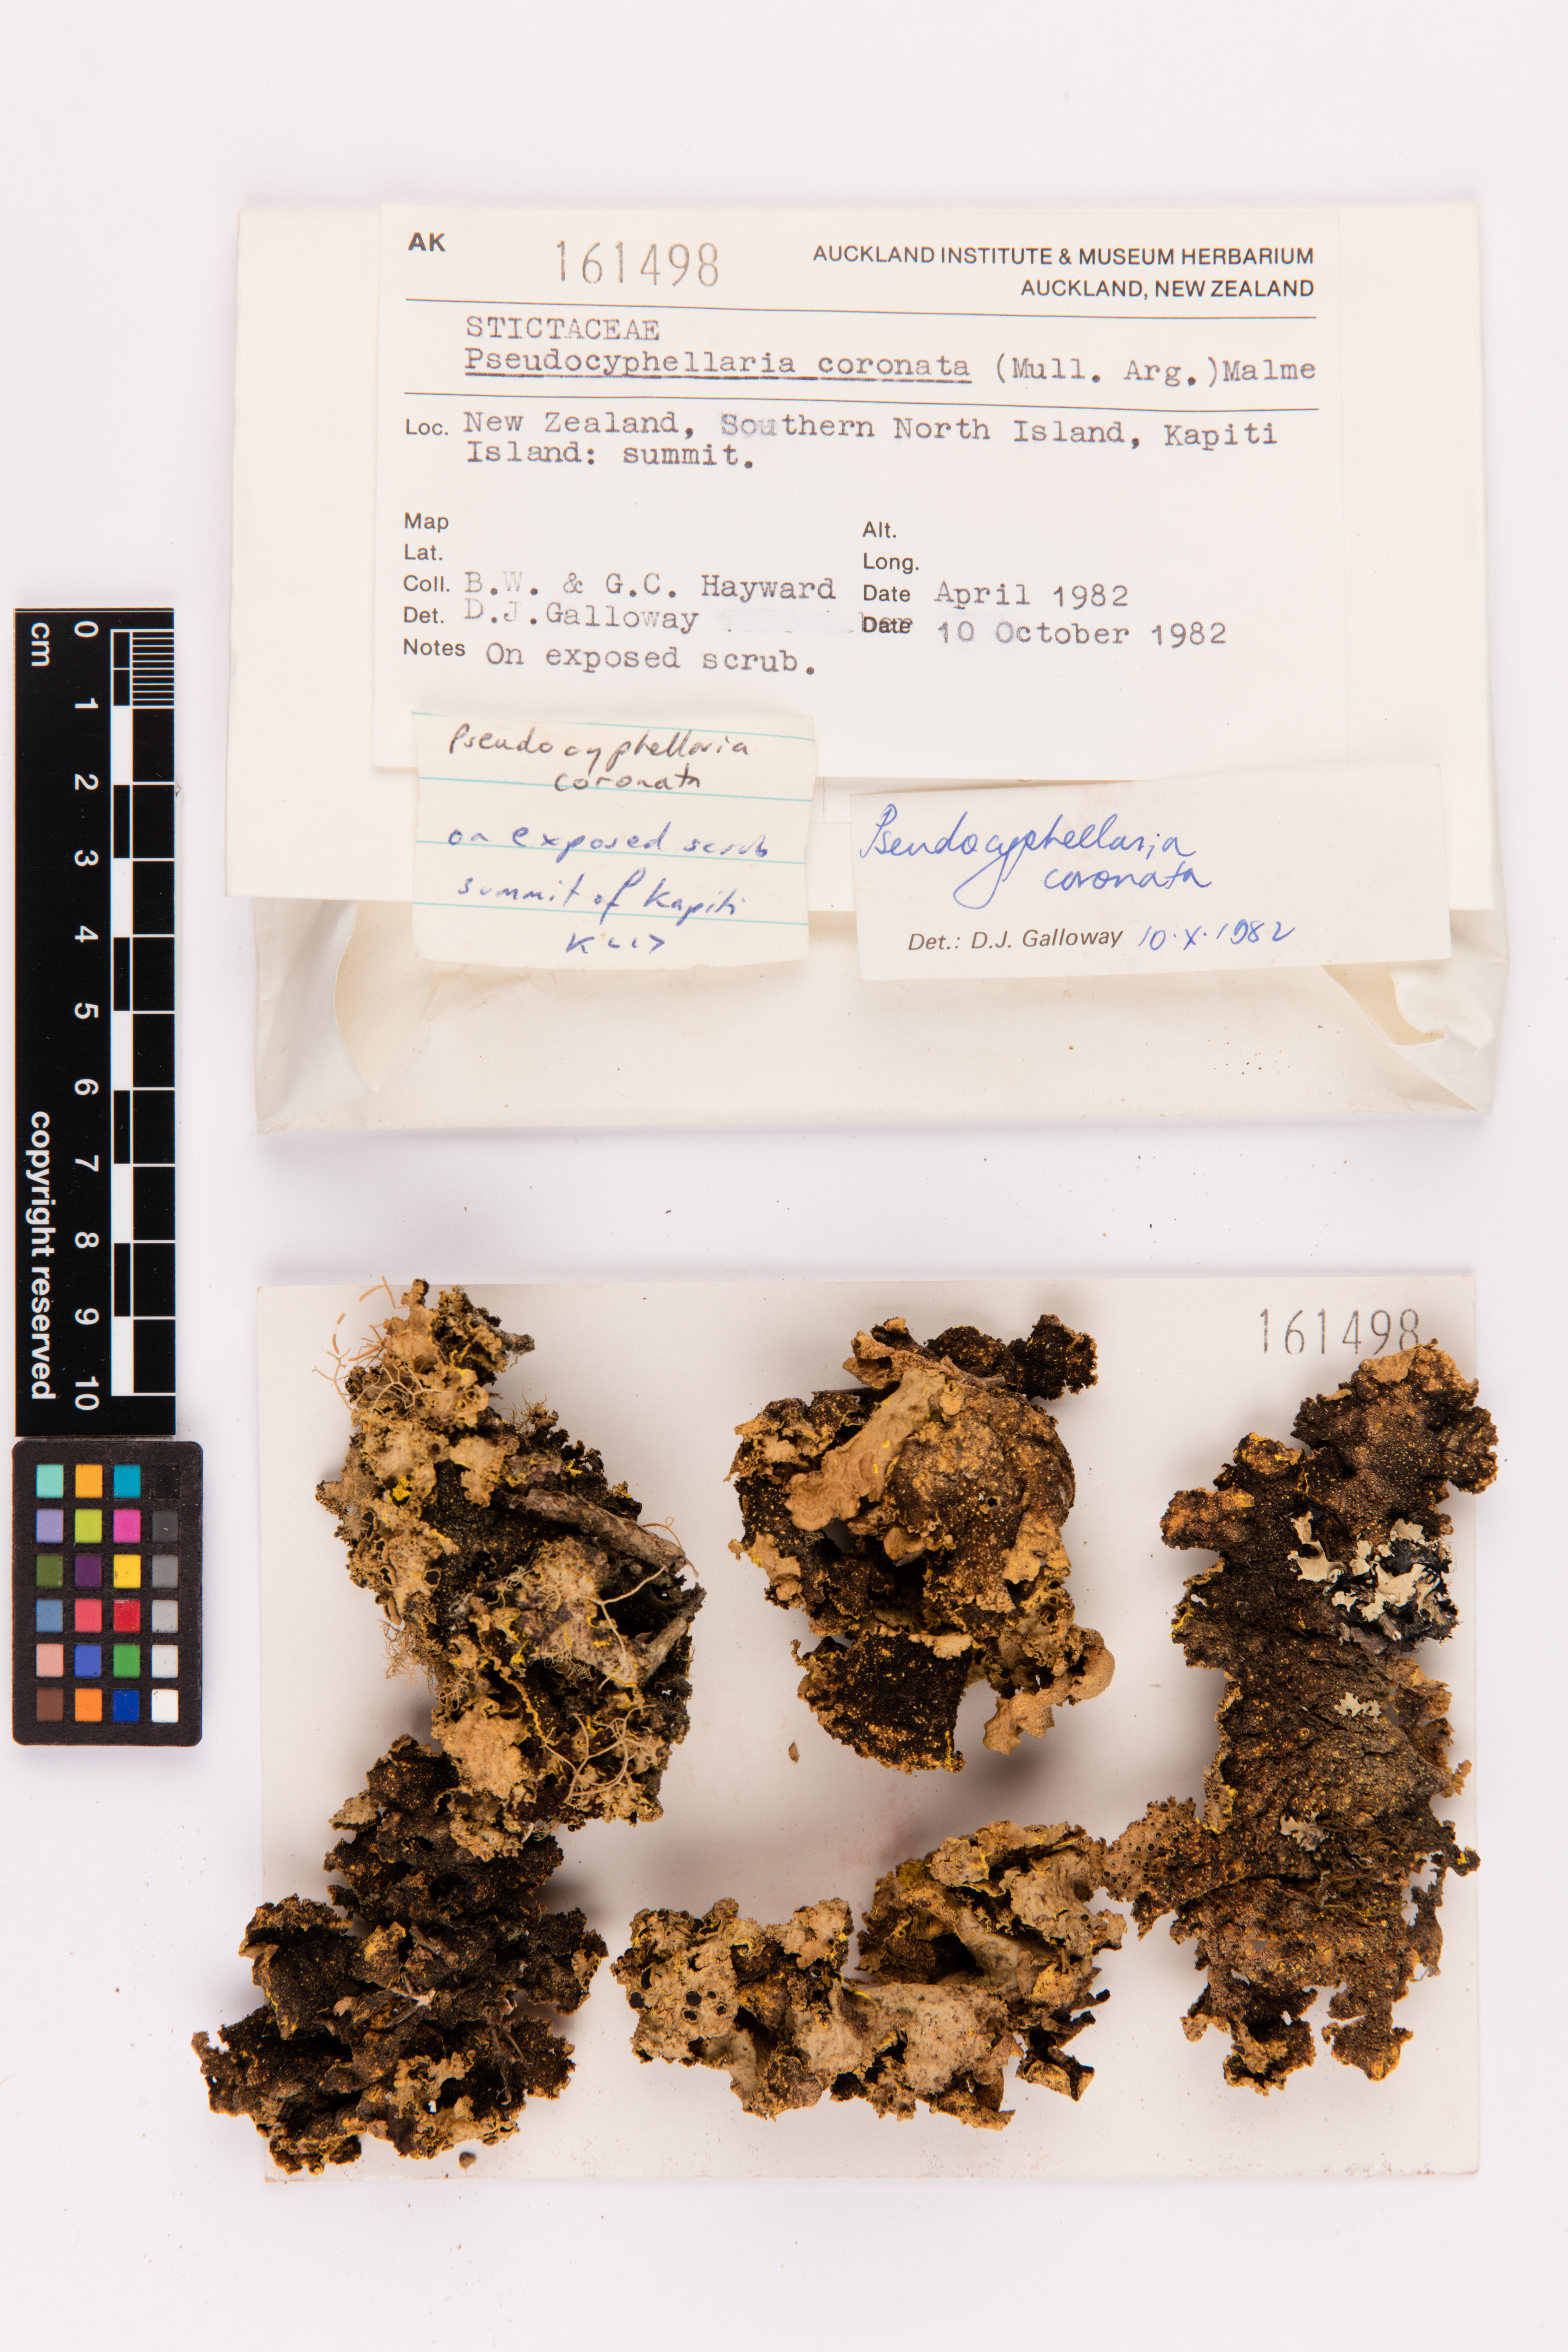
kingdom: Fungi
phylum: Ascomycota
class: Lecanoromycetes
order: Peltigerales
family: Lobariaceae
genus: Yarrumia
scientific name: Yarrumia coronata
